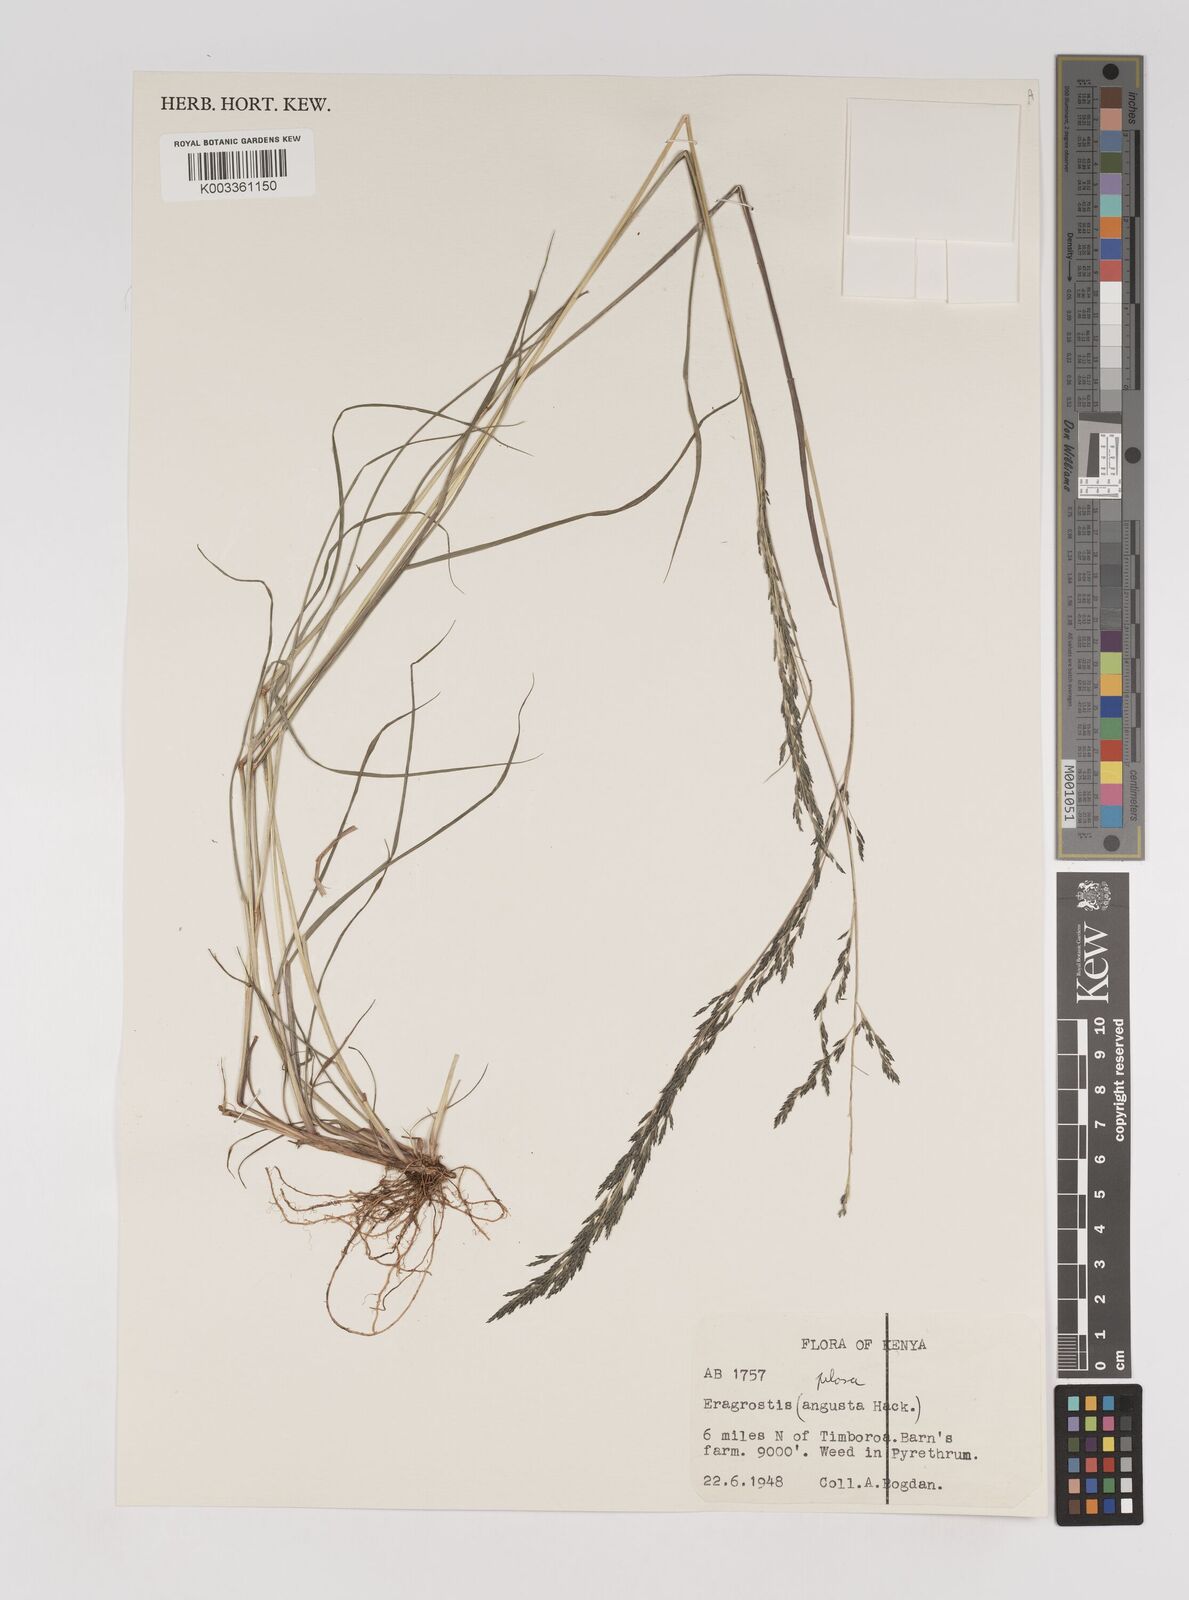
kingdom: Plantae
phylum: Tracheophyta
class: Liliopsida
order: Poales
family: Poaceae
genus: Eragrostis
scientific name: Eragrostis pilosa
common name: Indian lovegrass
